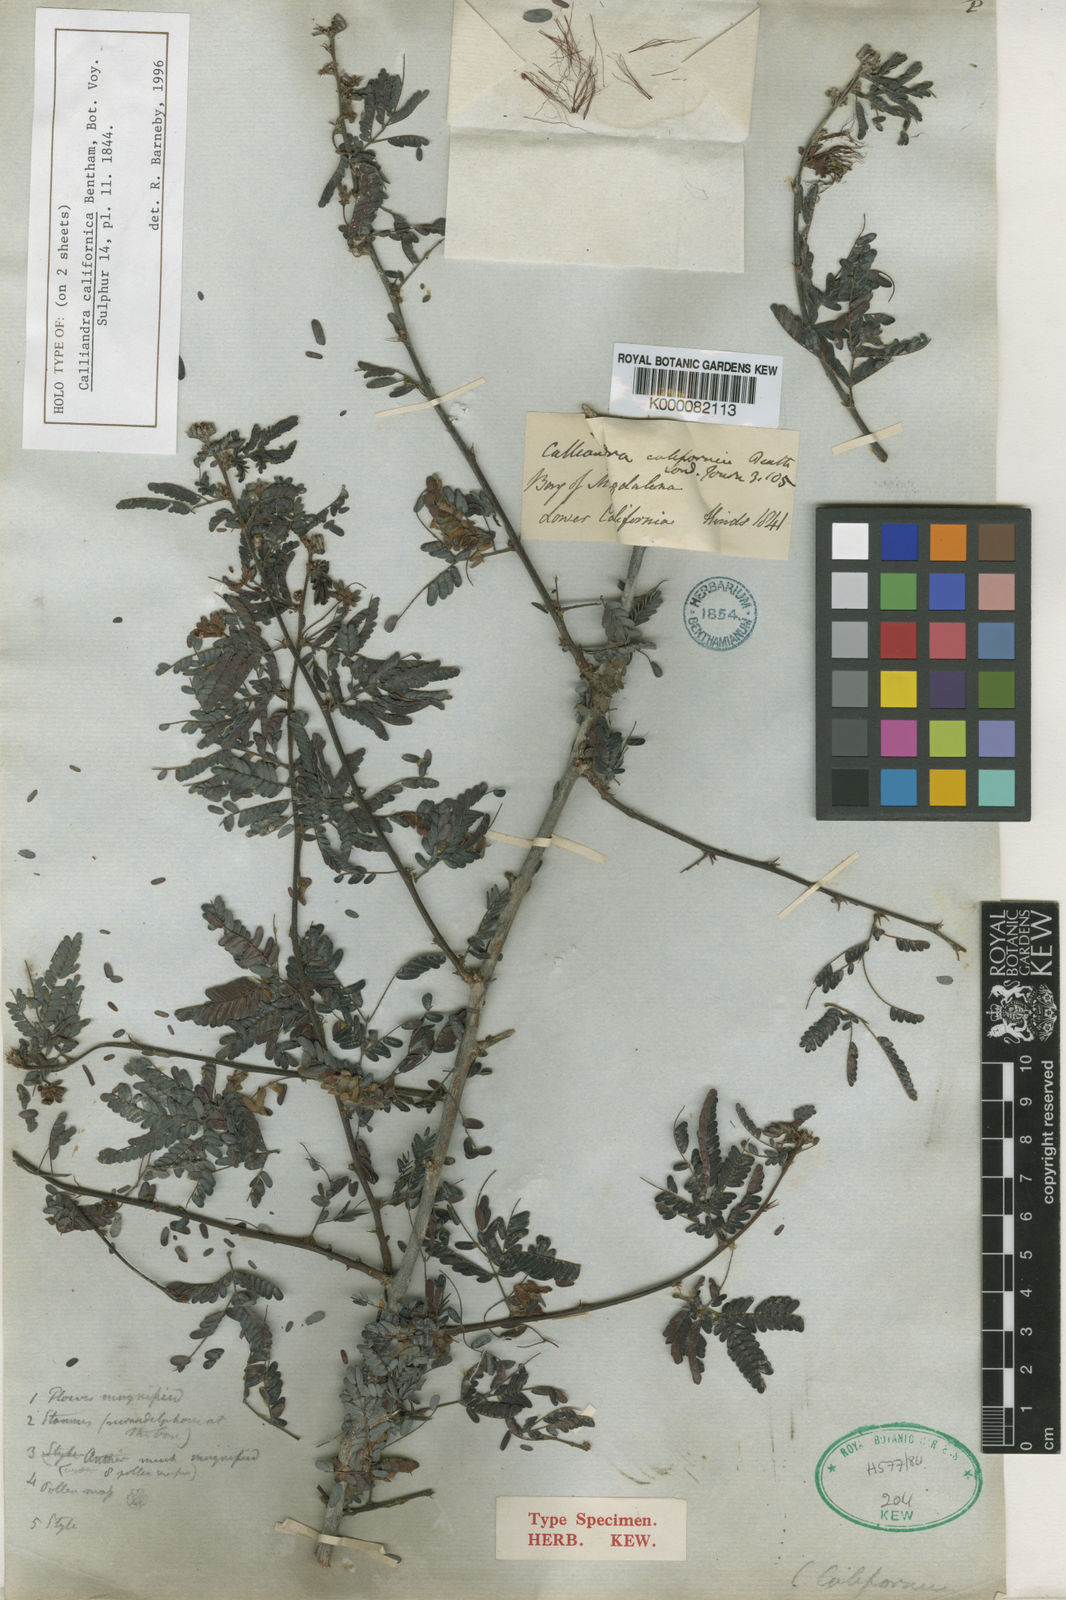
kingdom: Plantae
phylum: Tracheophyta
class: Magnoliopsida
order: Fabales
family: Fabaceae
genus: Calliandra
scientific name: Calliandra californica
